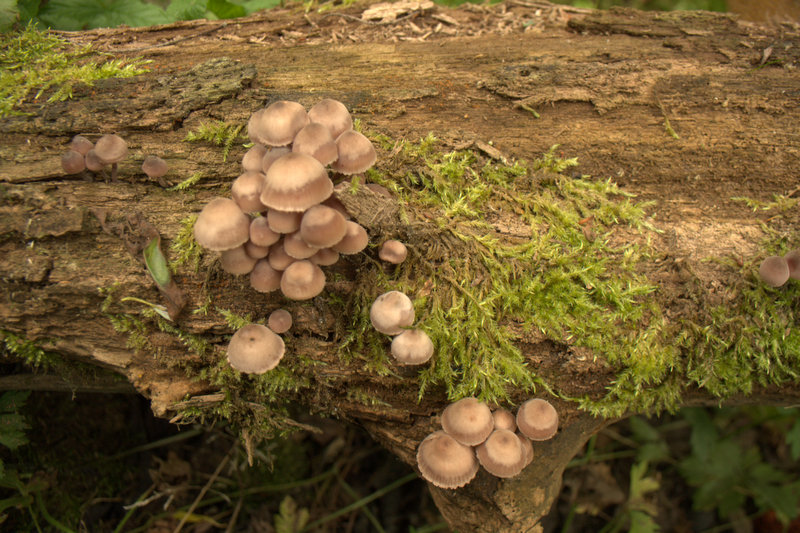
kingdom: Fungi
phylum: Basidiomycota
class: Agaricomycetes
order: Agaricales
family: Mycenaceae
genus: Mycena
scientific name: Mycena haematopus
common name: blødende huesvamp
